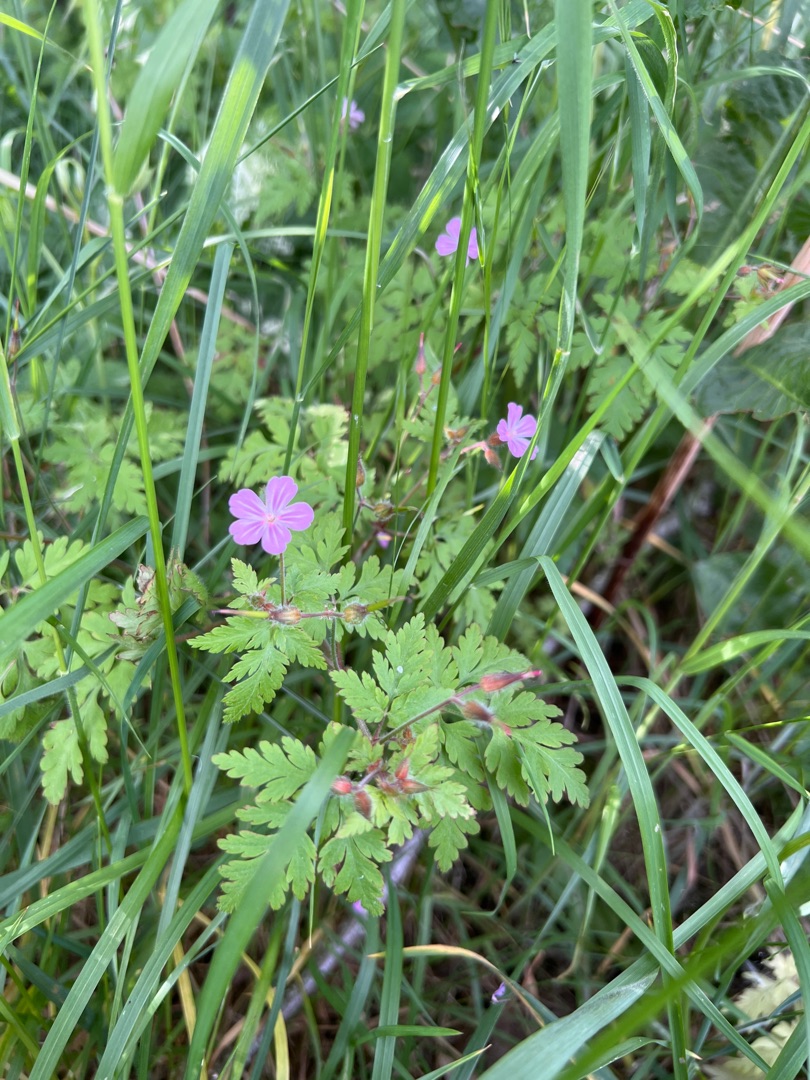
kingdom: Plantae
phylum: Tracheophyta
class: Magnoliopsida
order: Geraniales
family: Geraniaceae
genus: Geranium
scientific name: Geranium robertianum
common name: Stinkende storkenæb
